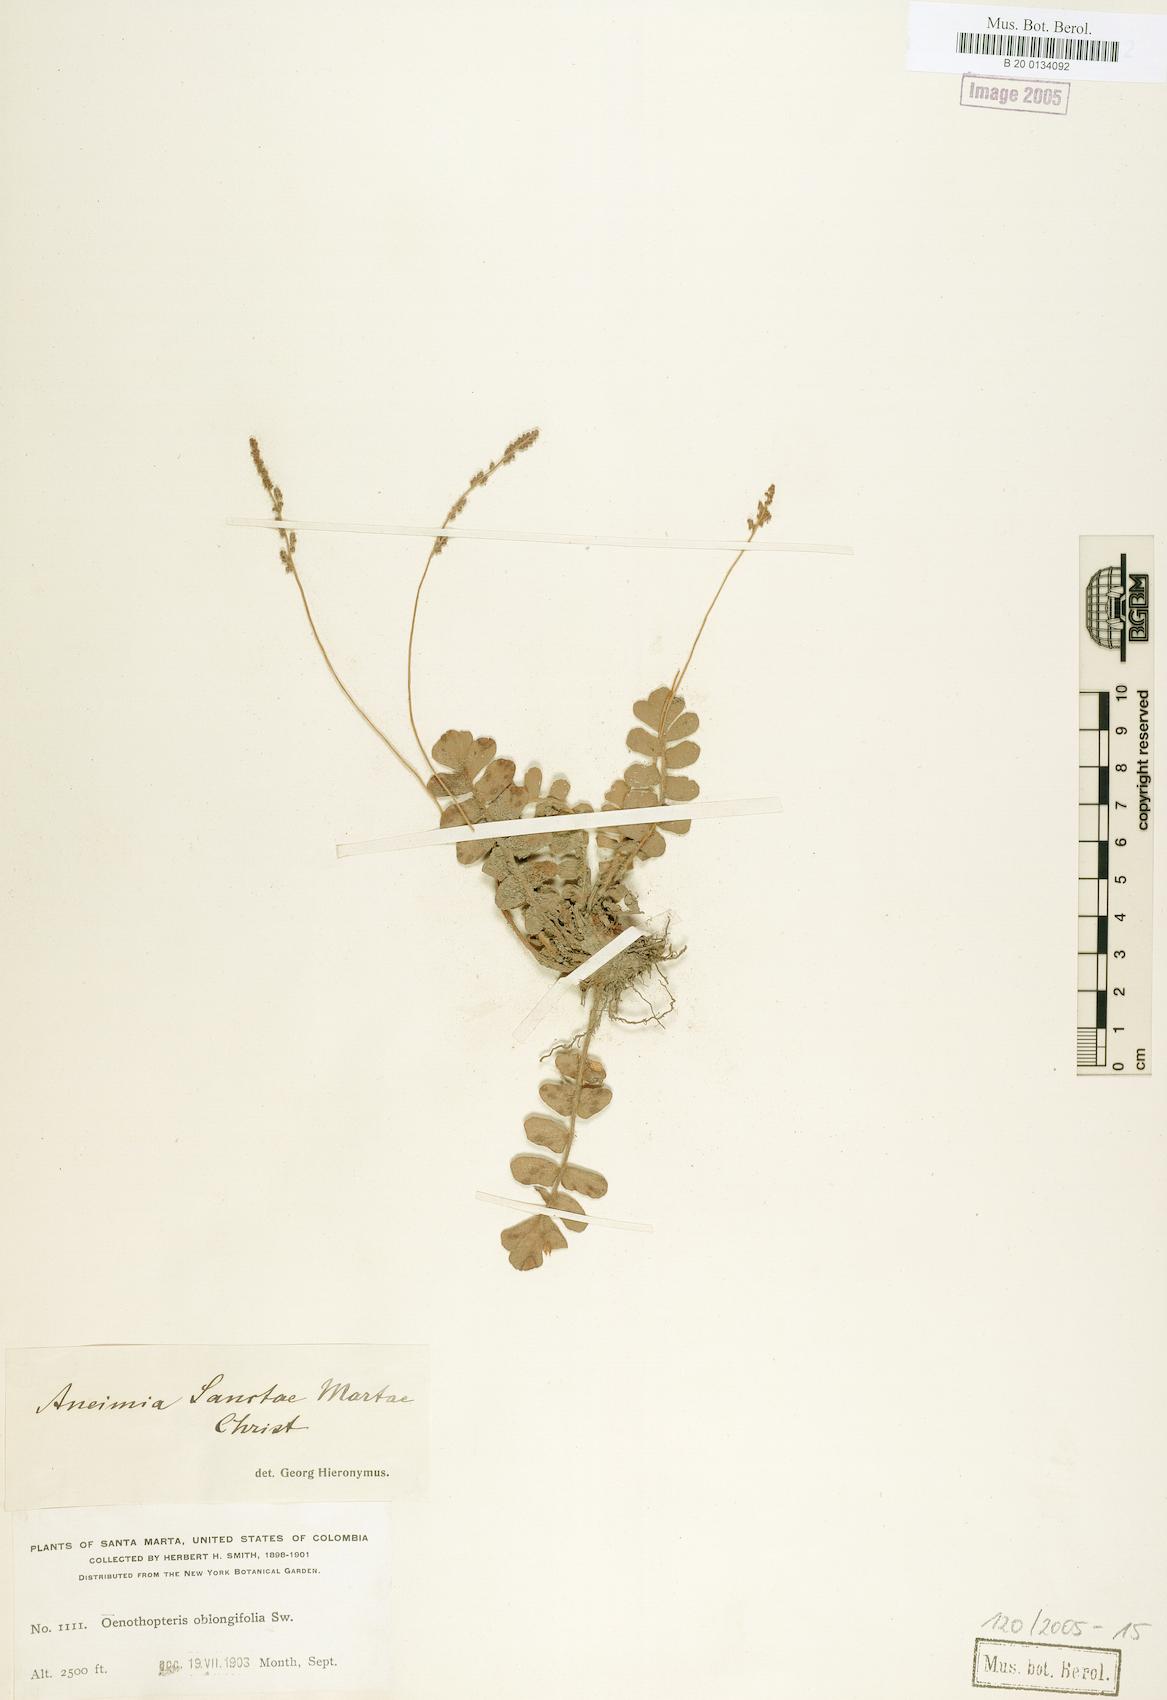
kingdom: Plantae
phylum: Tracheophyta
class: Polypodiopsida
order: Schizaeales
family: Anemiaceae
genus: Anemia
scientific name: Anemia presliana
